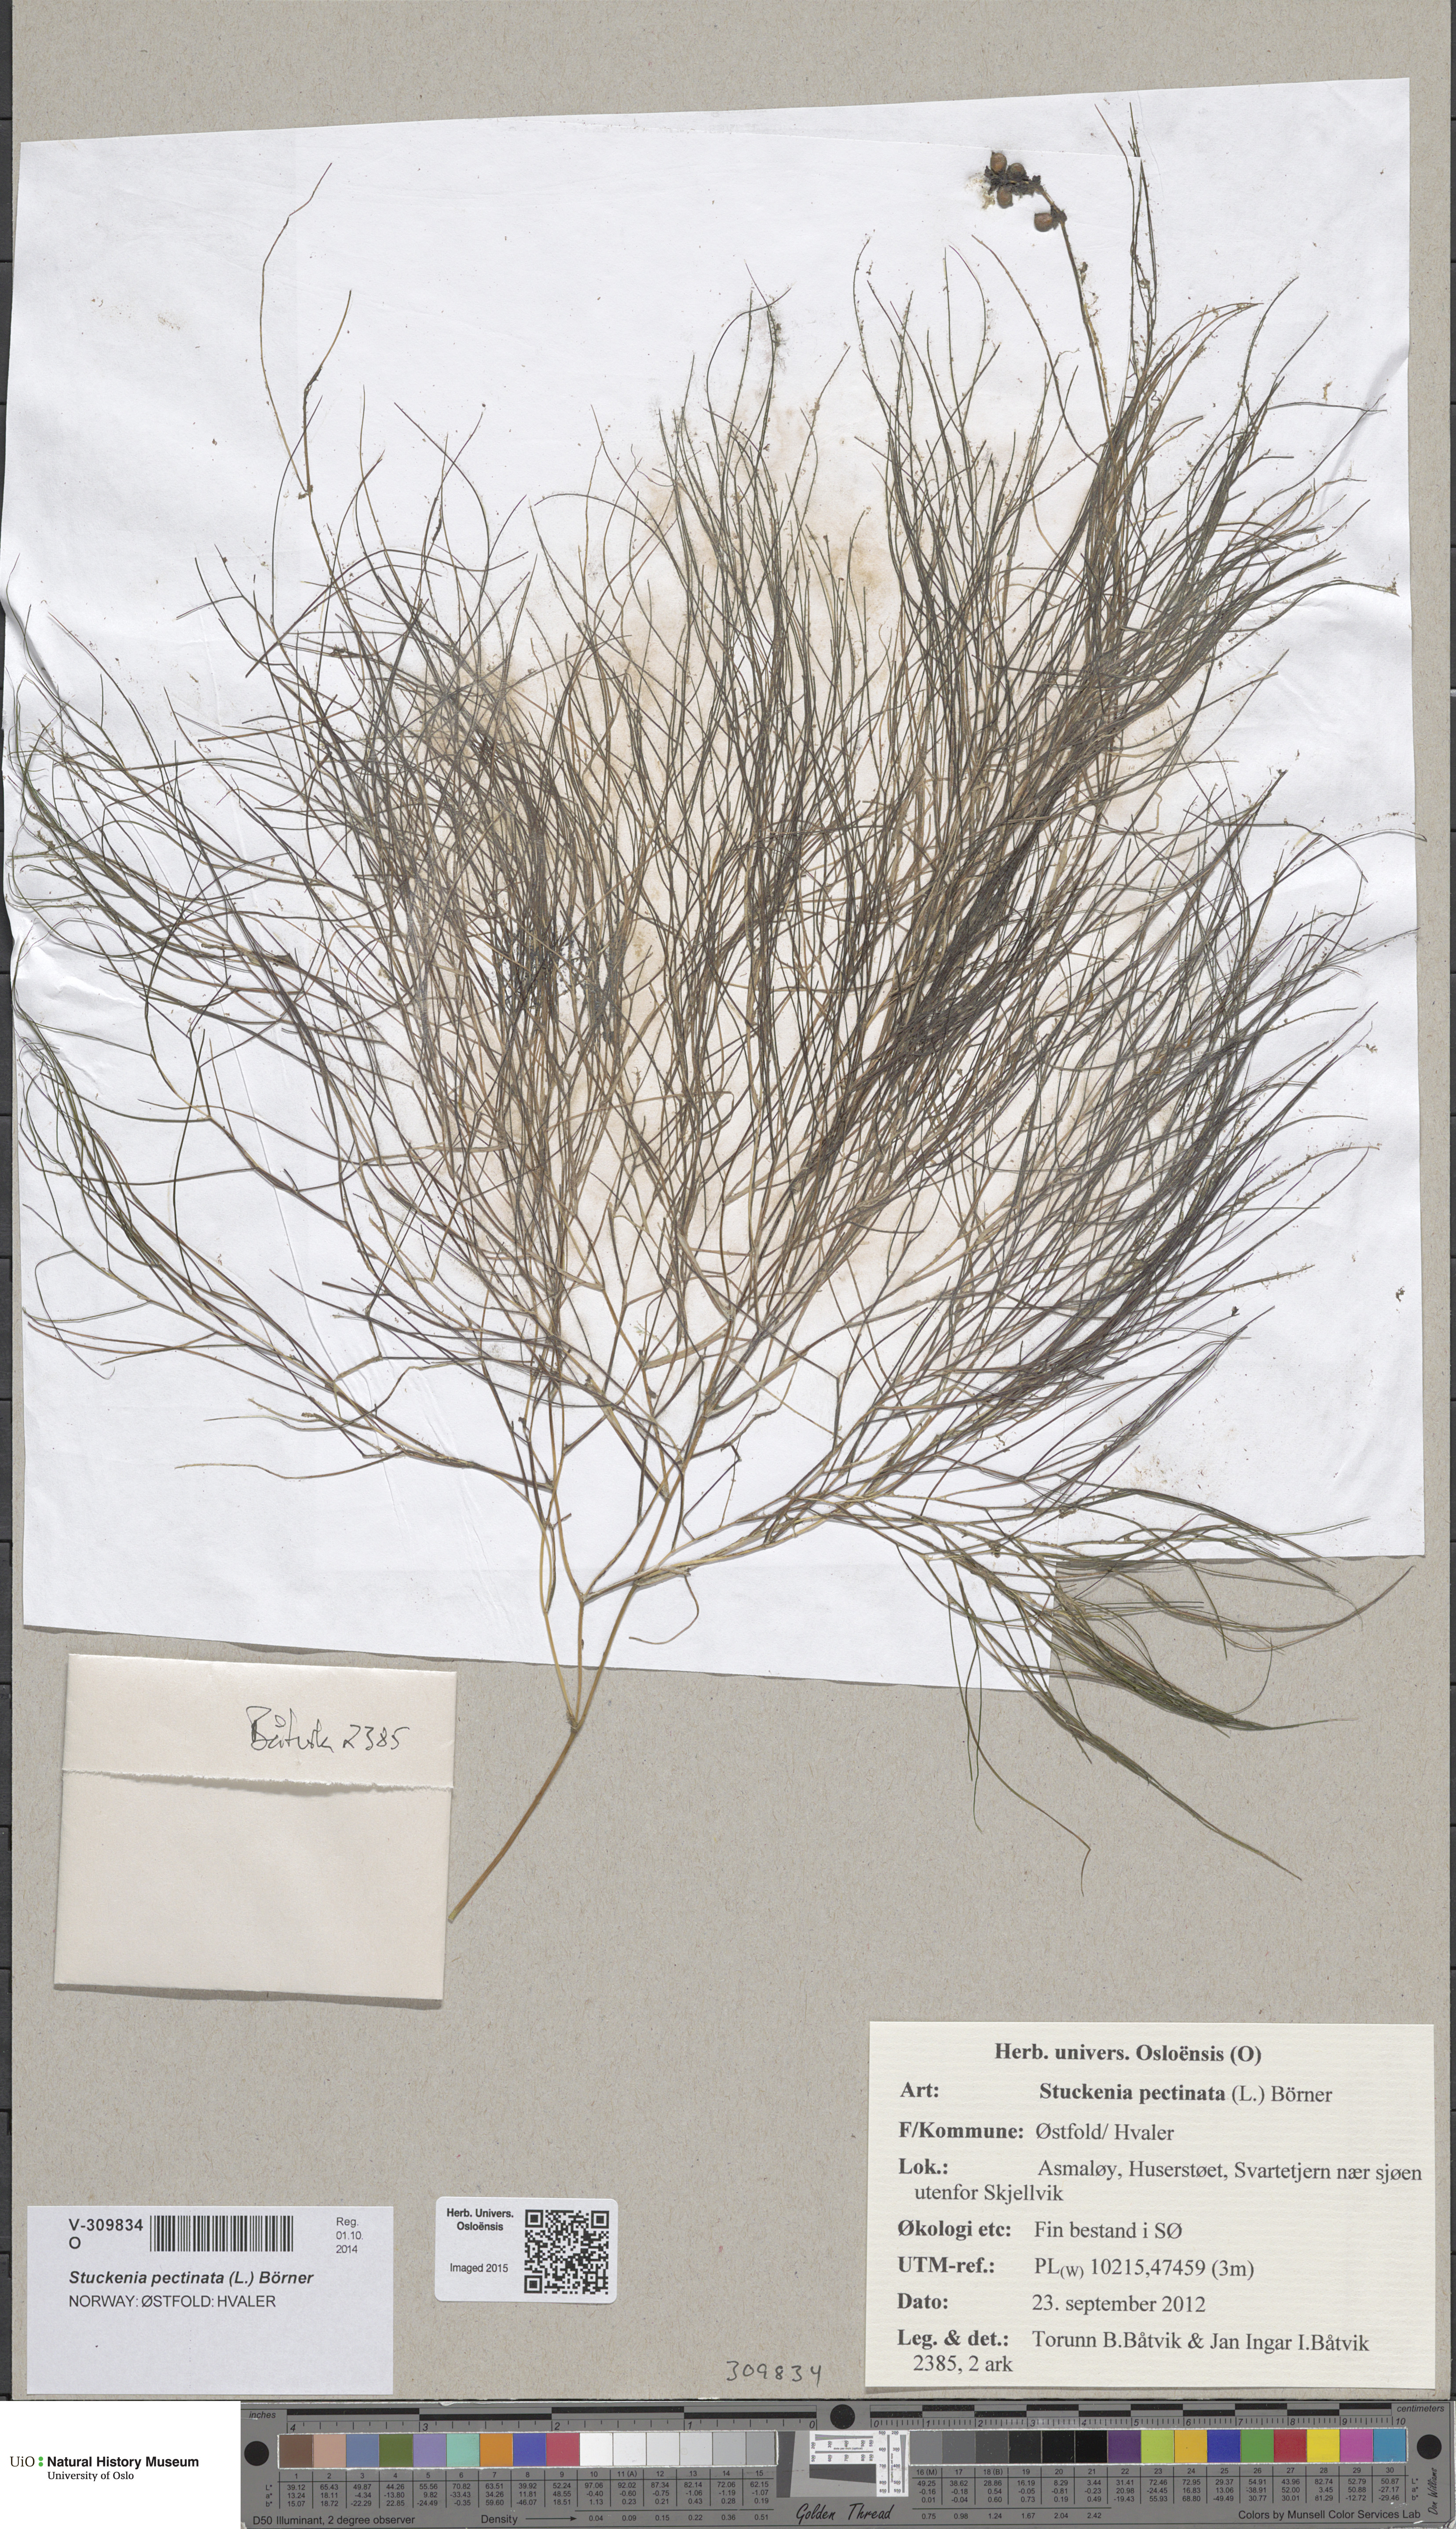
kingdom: Plantae
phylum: Tracheophyta
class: Liliopsida
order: Alismatales
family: Potamogetonaceae
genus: Stuckenia
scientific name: Stuckenia pectinata
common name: Sago pondweed
